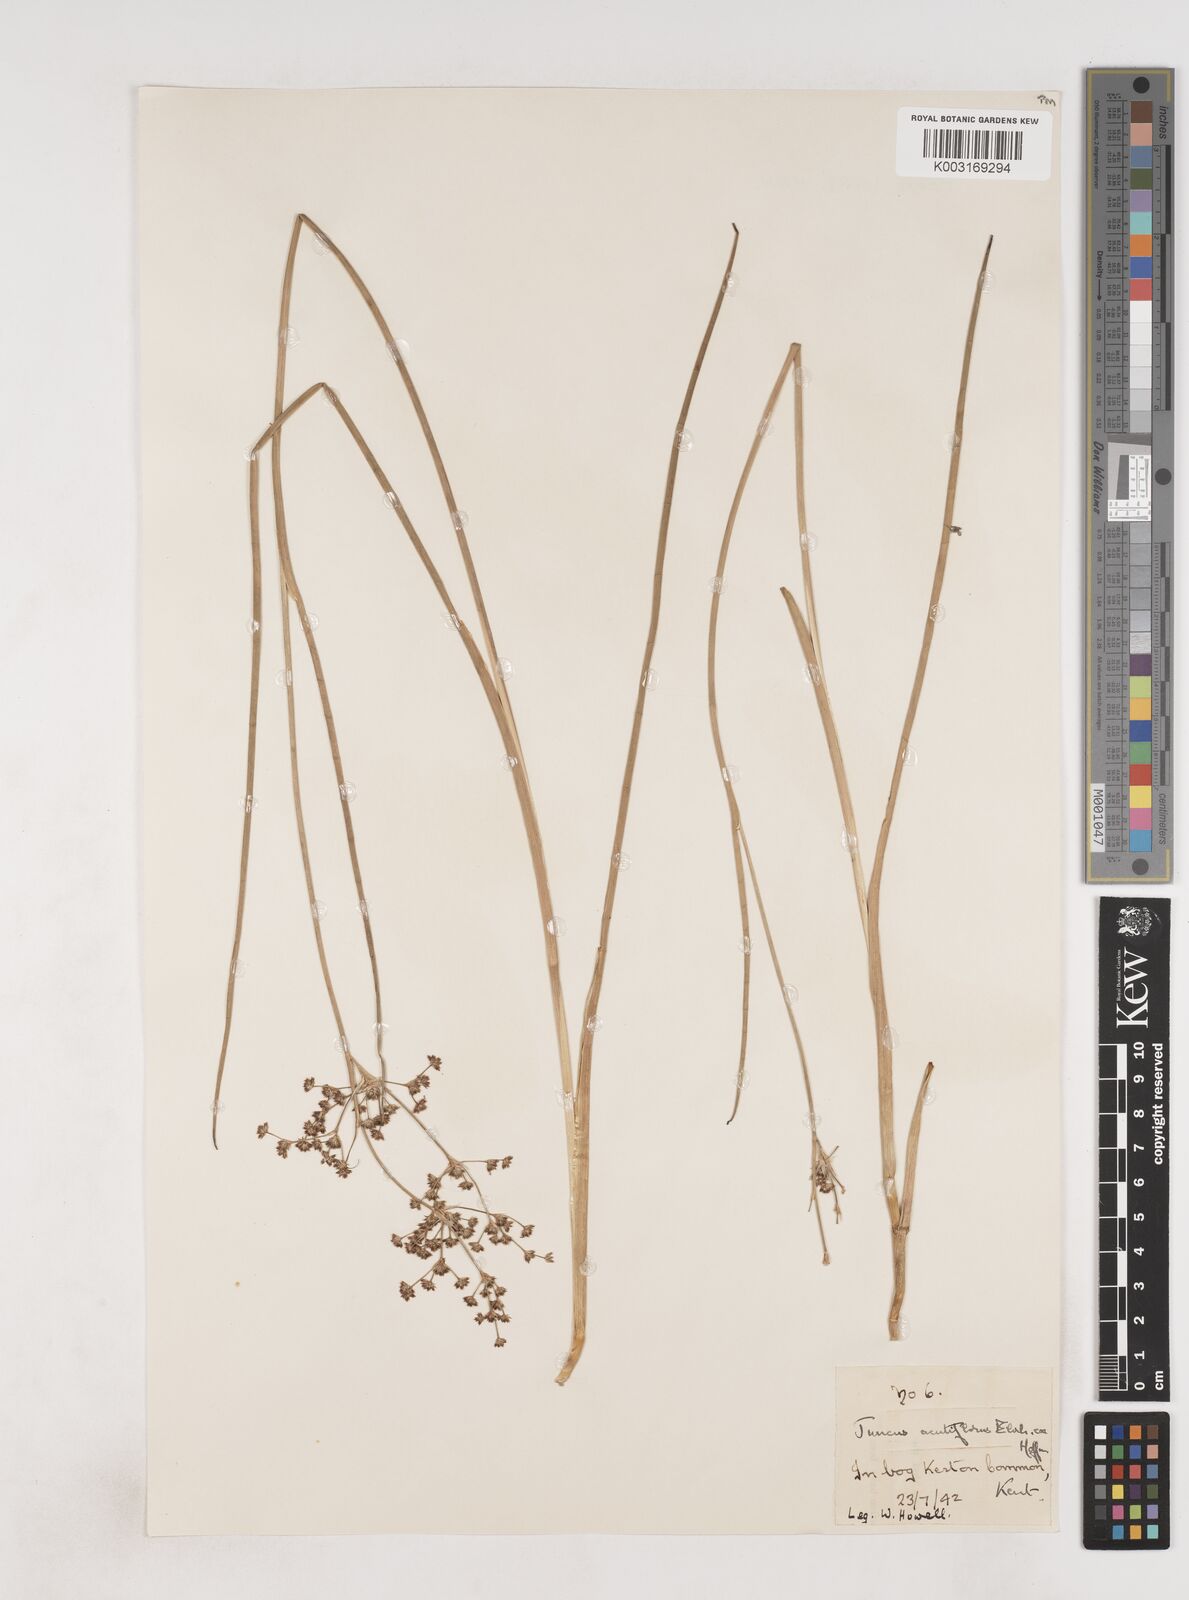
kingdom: Plantae
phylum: Tracheophyta
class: Liliopsida
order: Poales
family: Juncaceae
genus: Juncus
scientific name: Juncus acutiflorus
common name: Sharp-flowered rush
